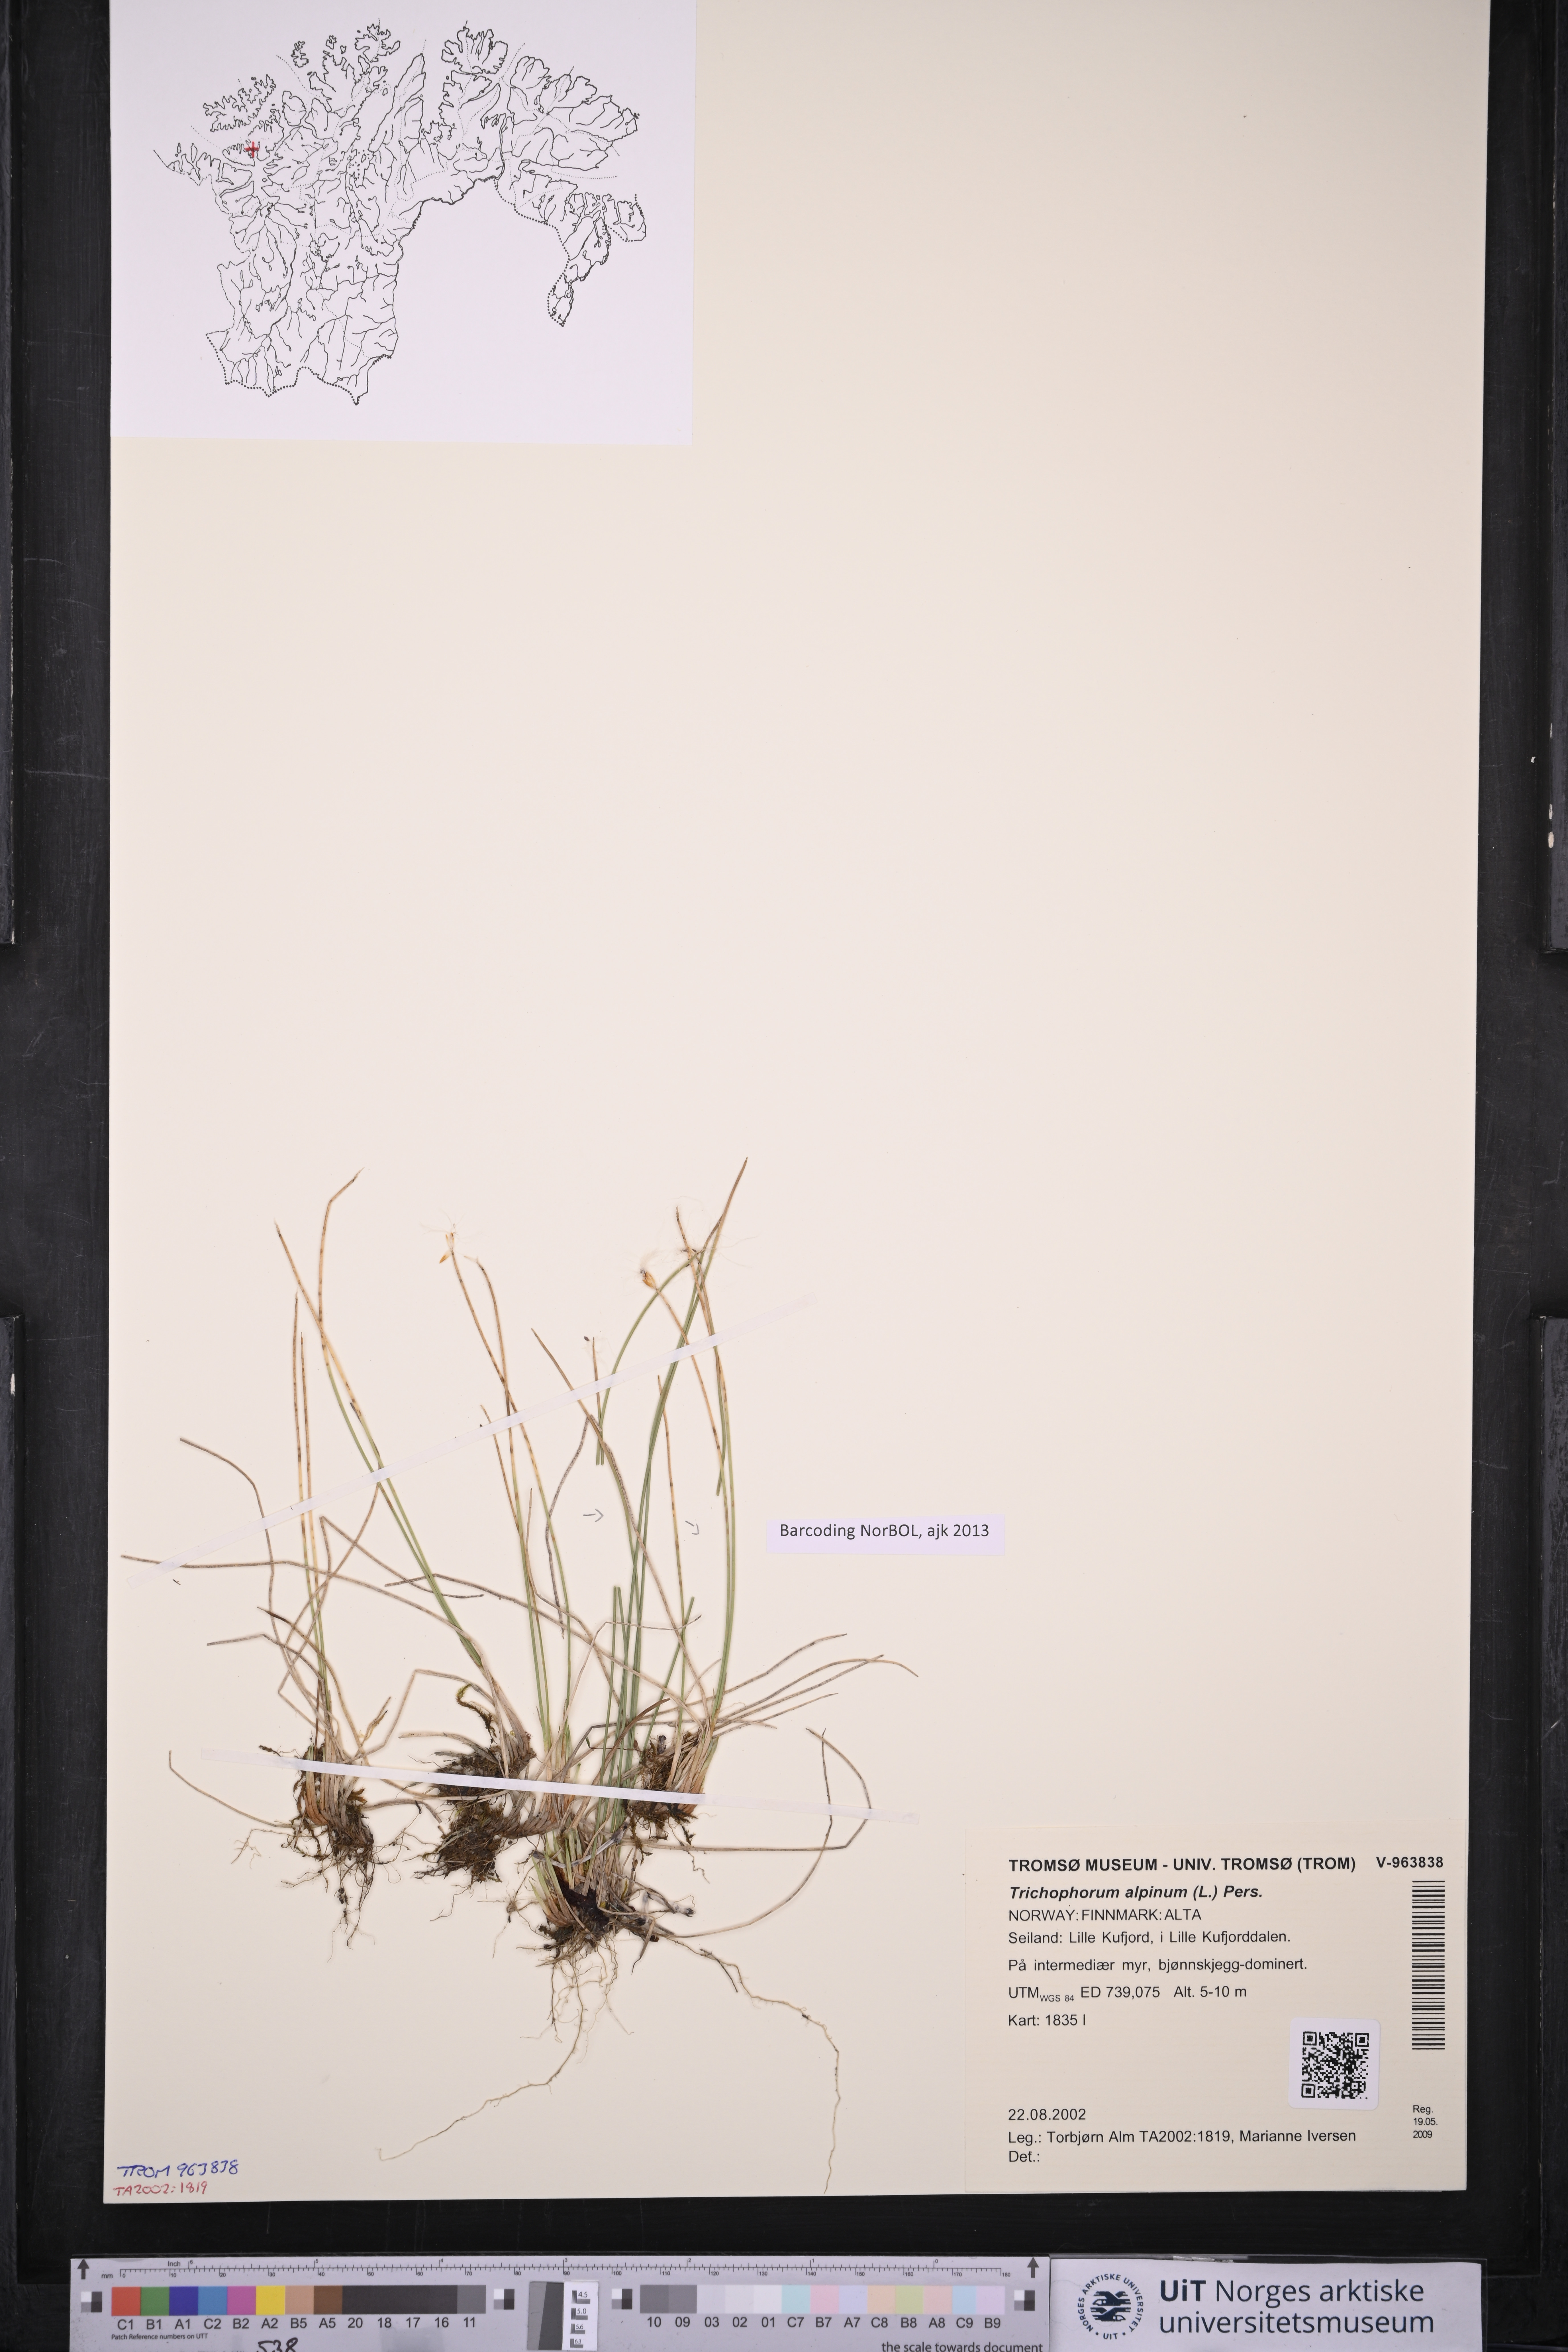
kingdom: Plantae
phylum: Tracheophyta
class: Liliopsida
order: Poales
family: Cyperaceae
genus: Trichophorum
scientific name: Trichophorum alpinum
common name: Alpine bulrush
